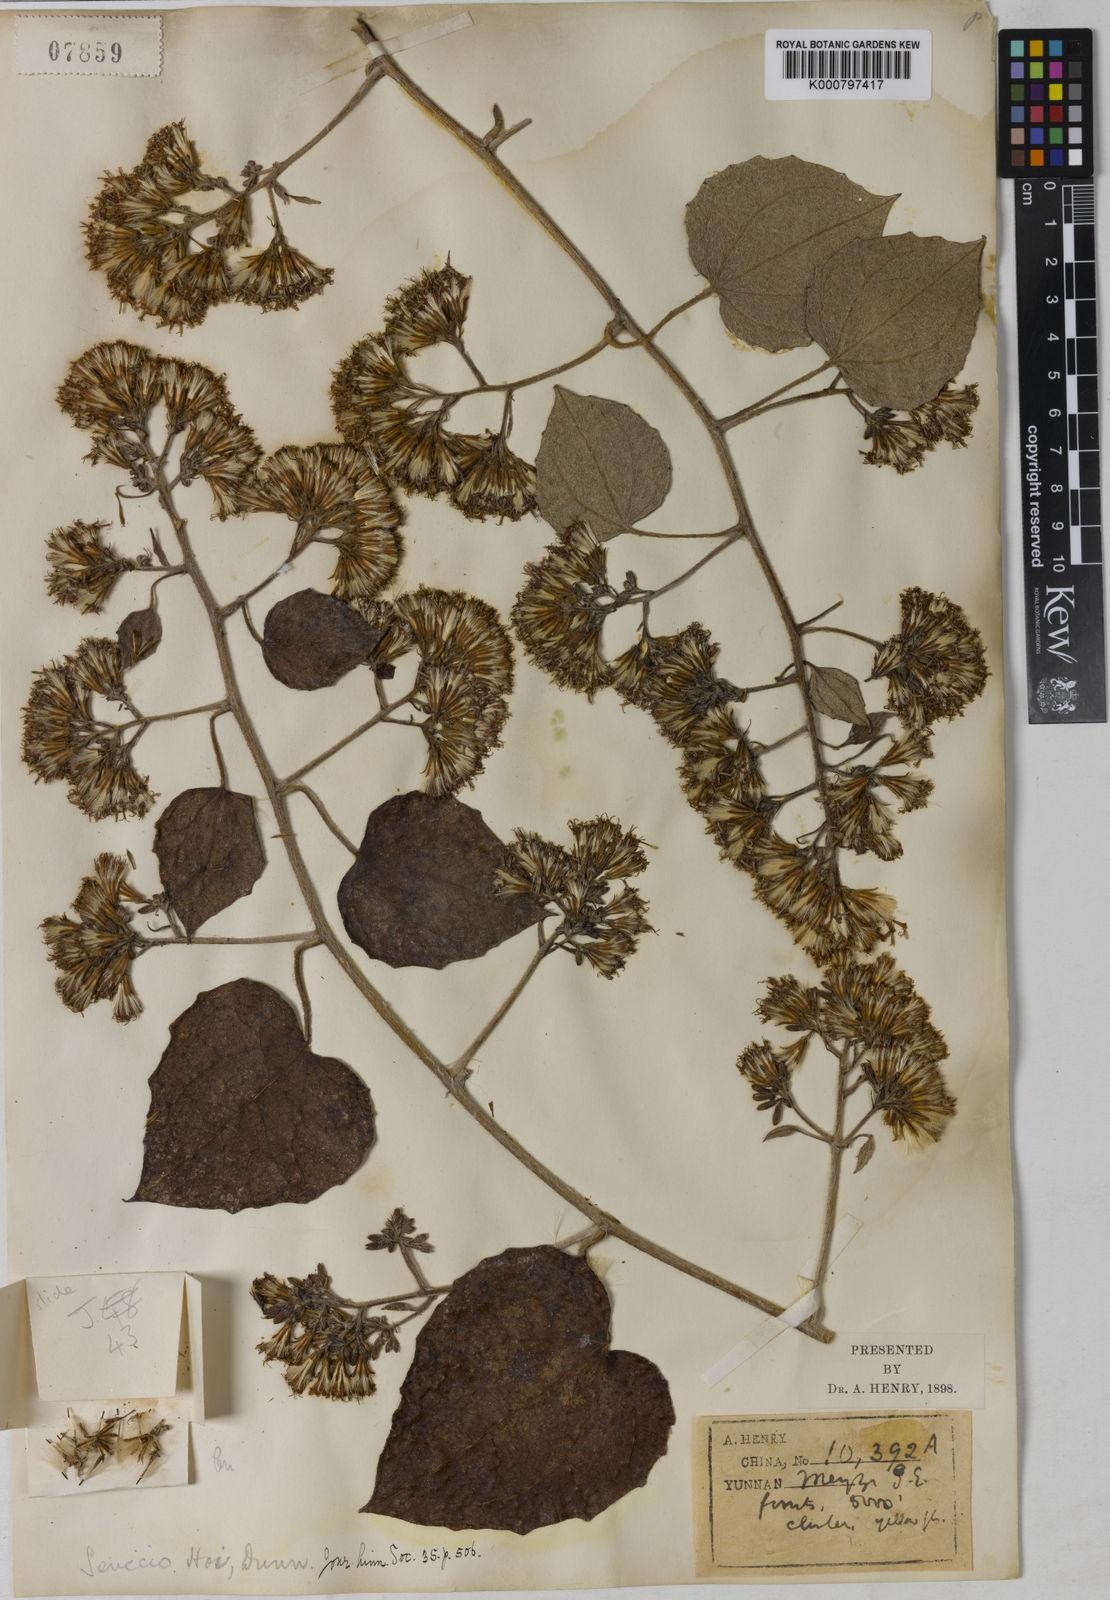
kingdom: Plantae
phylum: Tracheophyta
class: Magnoliopsida
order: Asterales
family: Asteraceae
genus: Cissampelopsis
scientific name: Cissampelopsis volubilis
